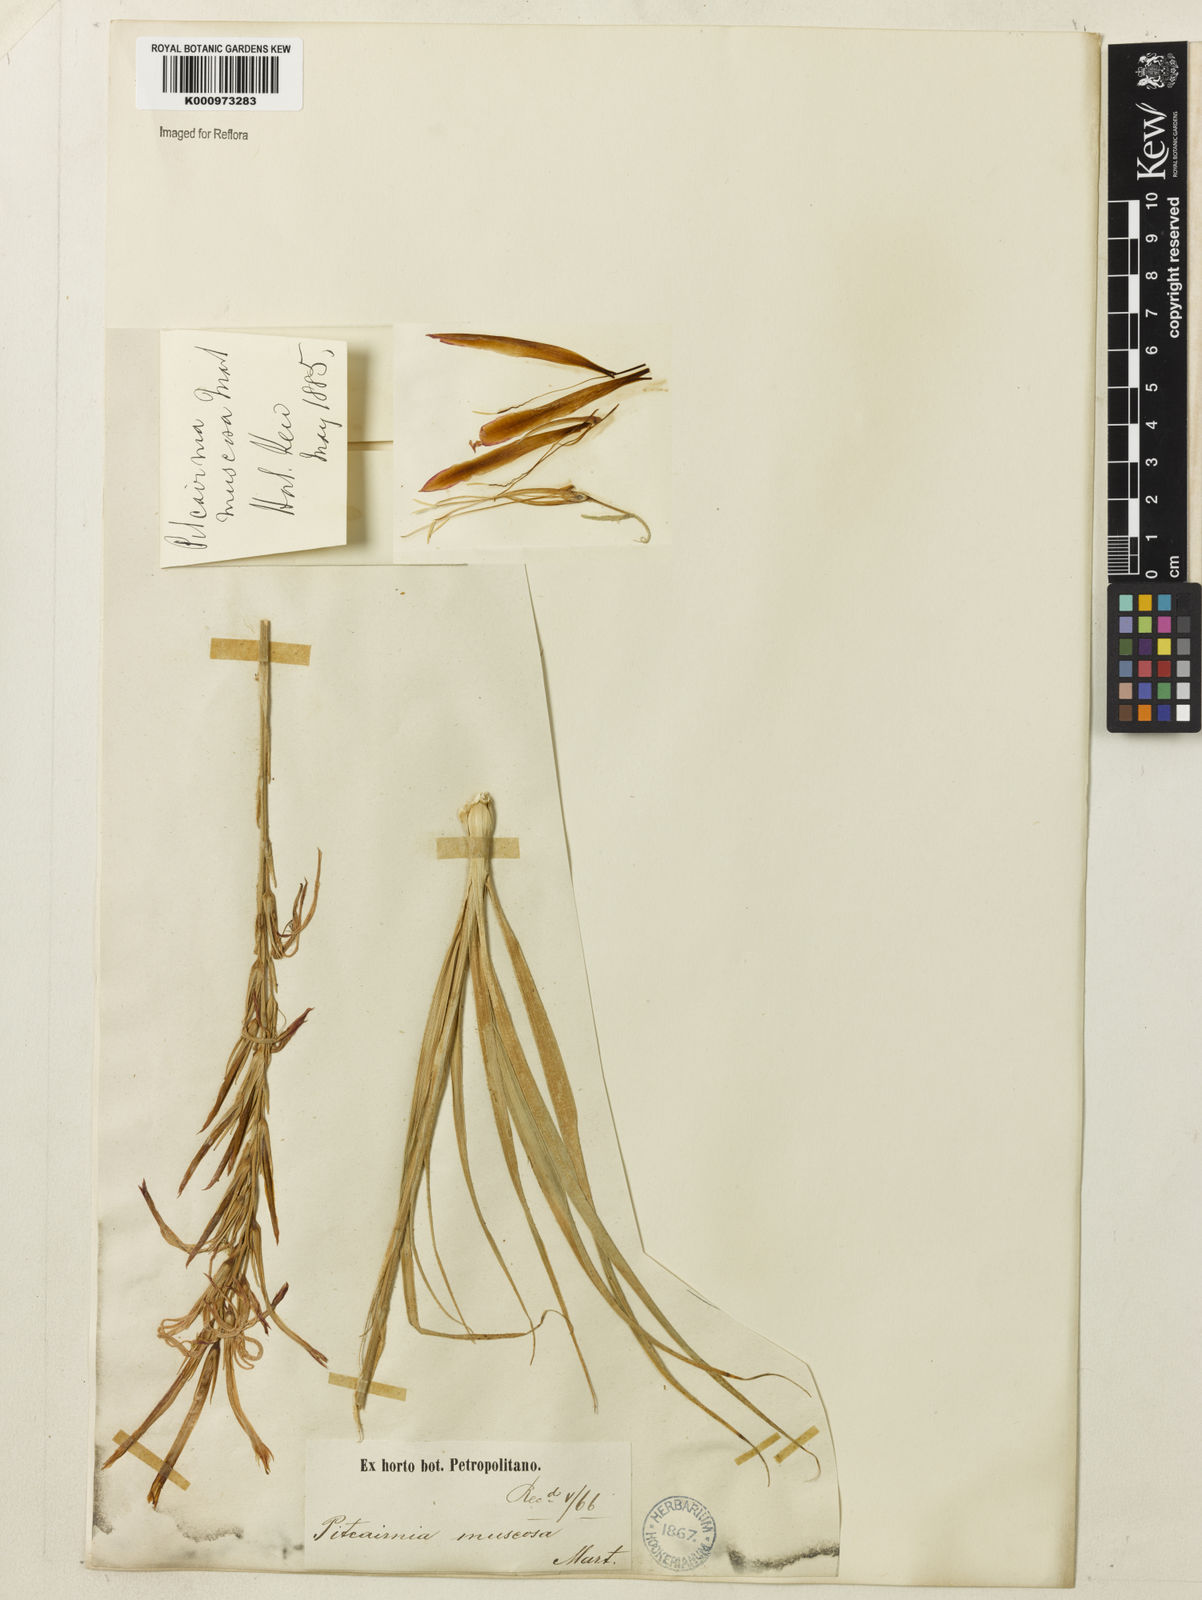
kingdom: Plantae
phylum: Tracheophyta
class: Liliopsida
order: Poales
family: Bromeliaceae
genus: Pitcairnia
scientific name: Pitcairnia flammea
